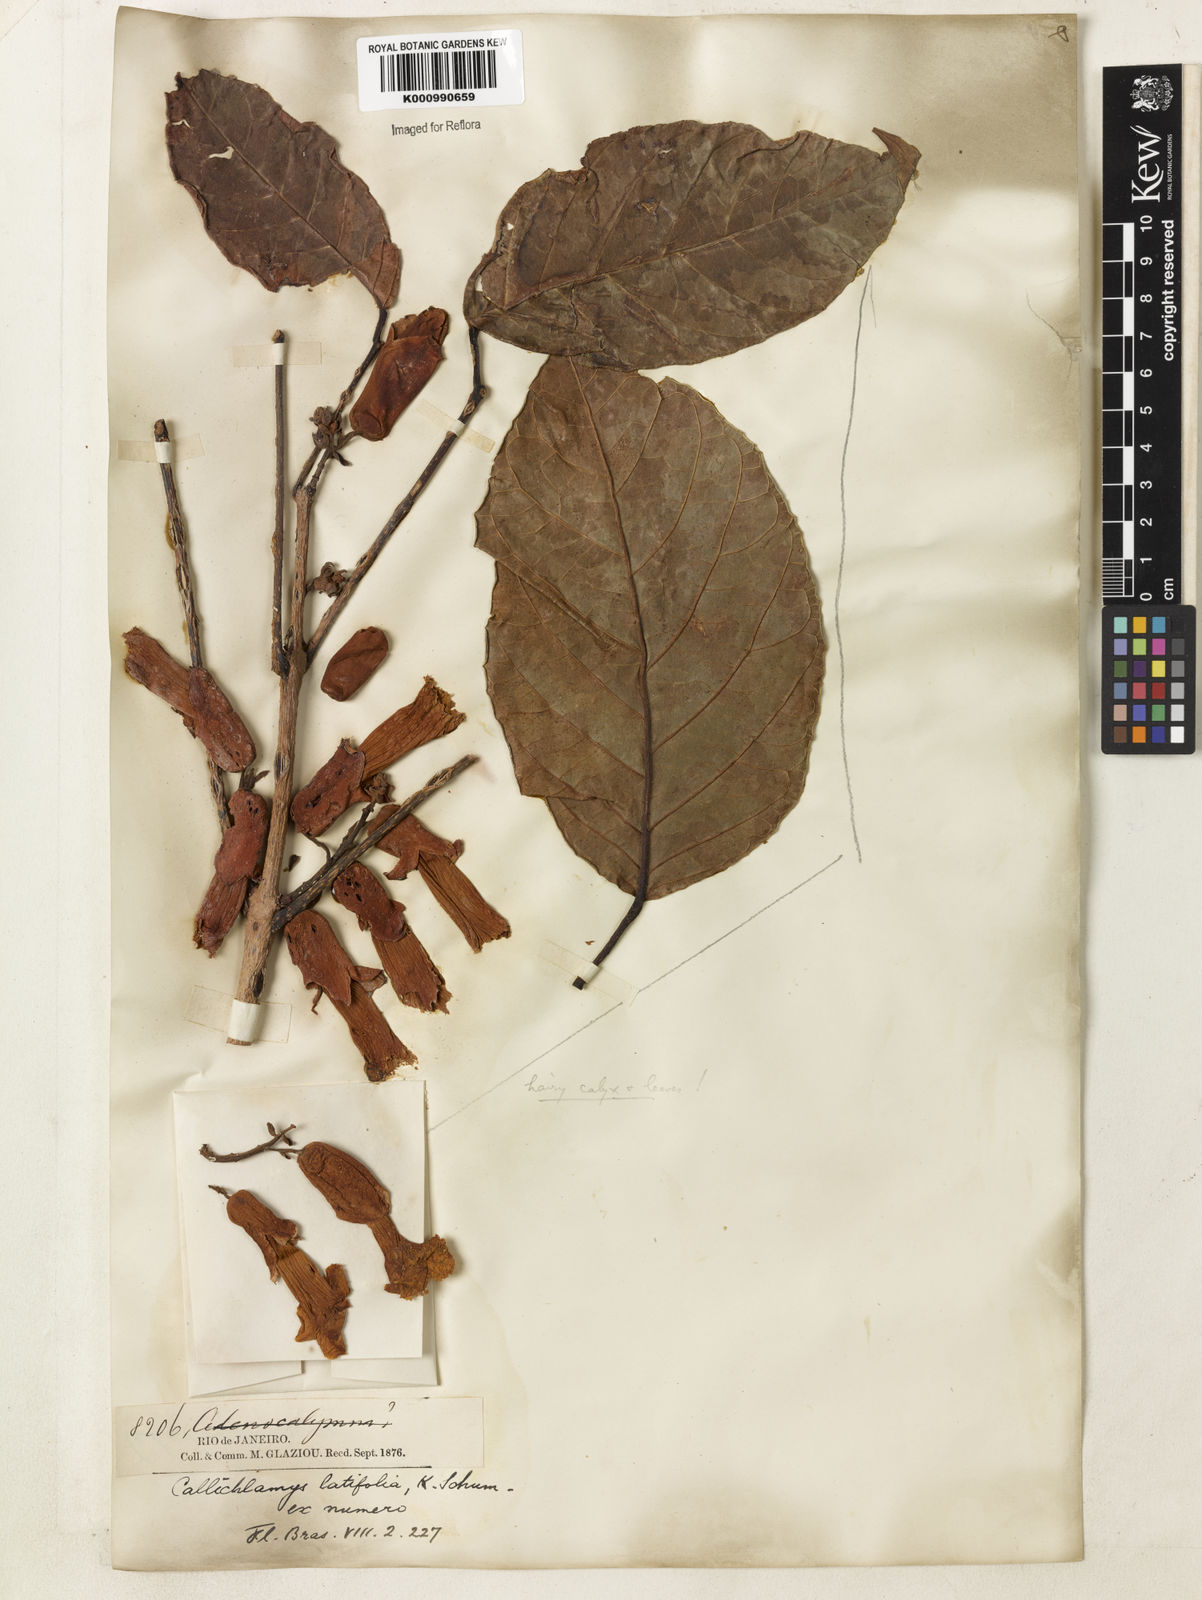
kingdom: Plantae
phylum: Tracheophyta
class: Magnoliopsida
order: Lamiales
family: Bignoniaceae
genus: Callichlamys
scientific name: Callichlamys latifolia
